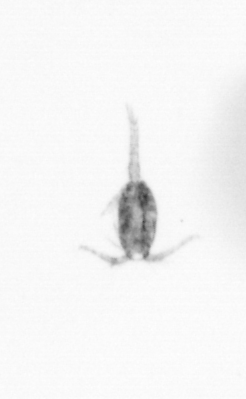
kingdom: Animalia
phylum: Arthropoda
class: Copepoda
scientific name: Copepoda
